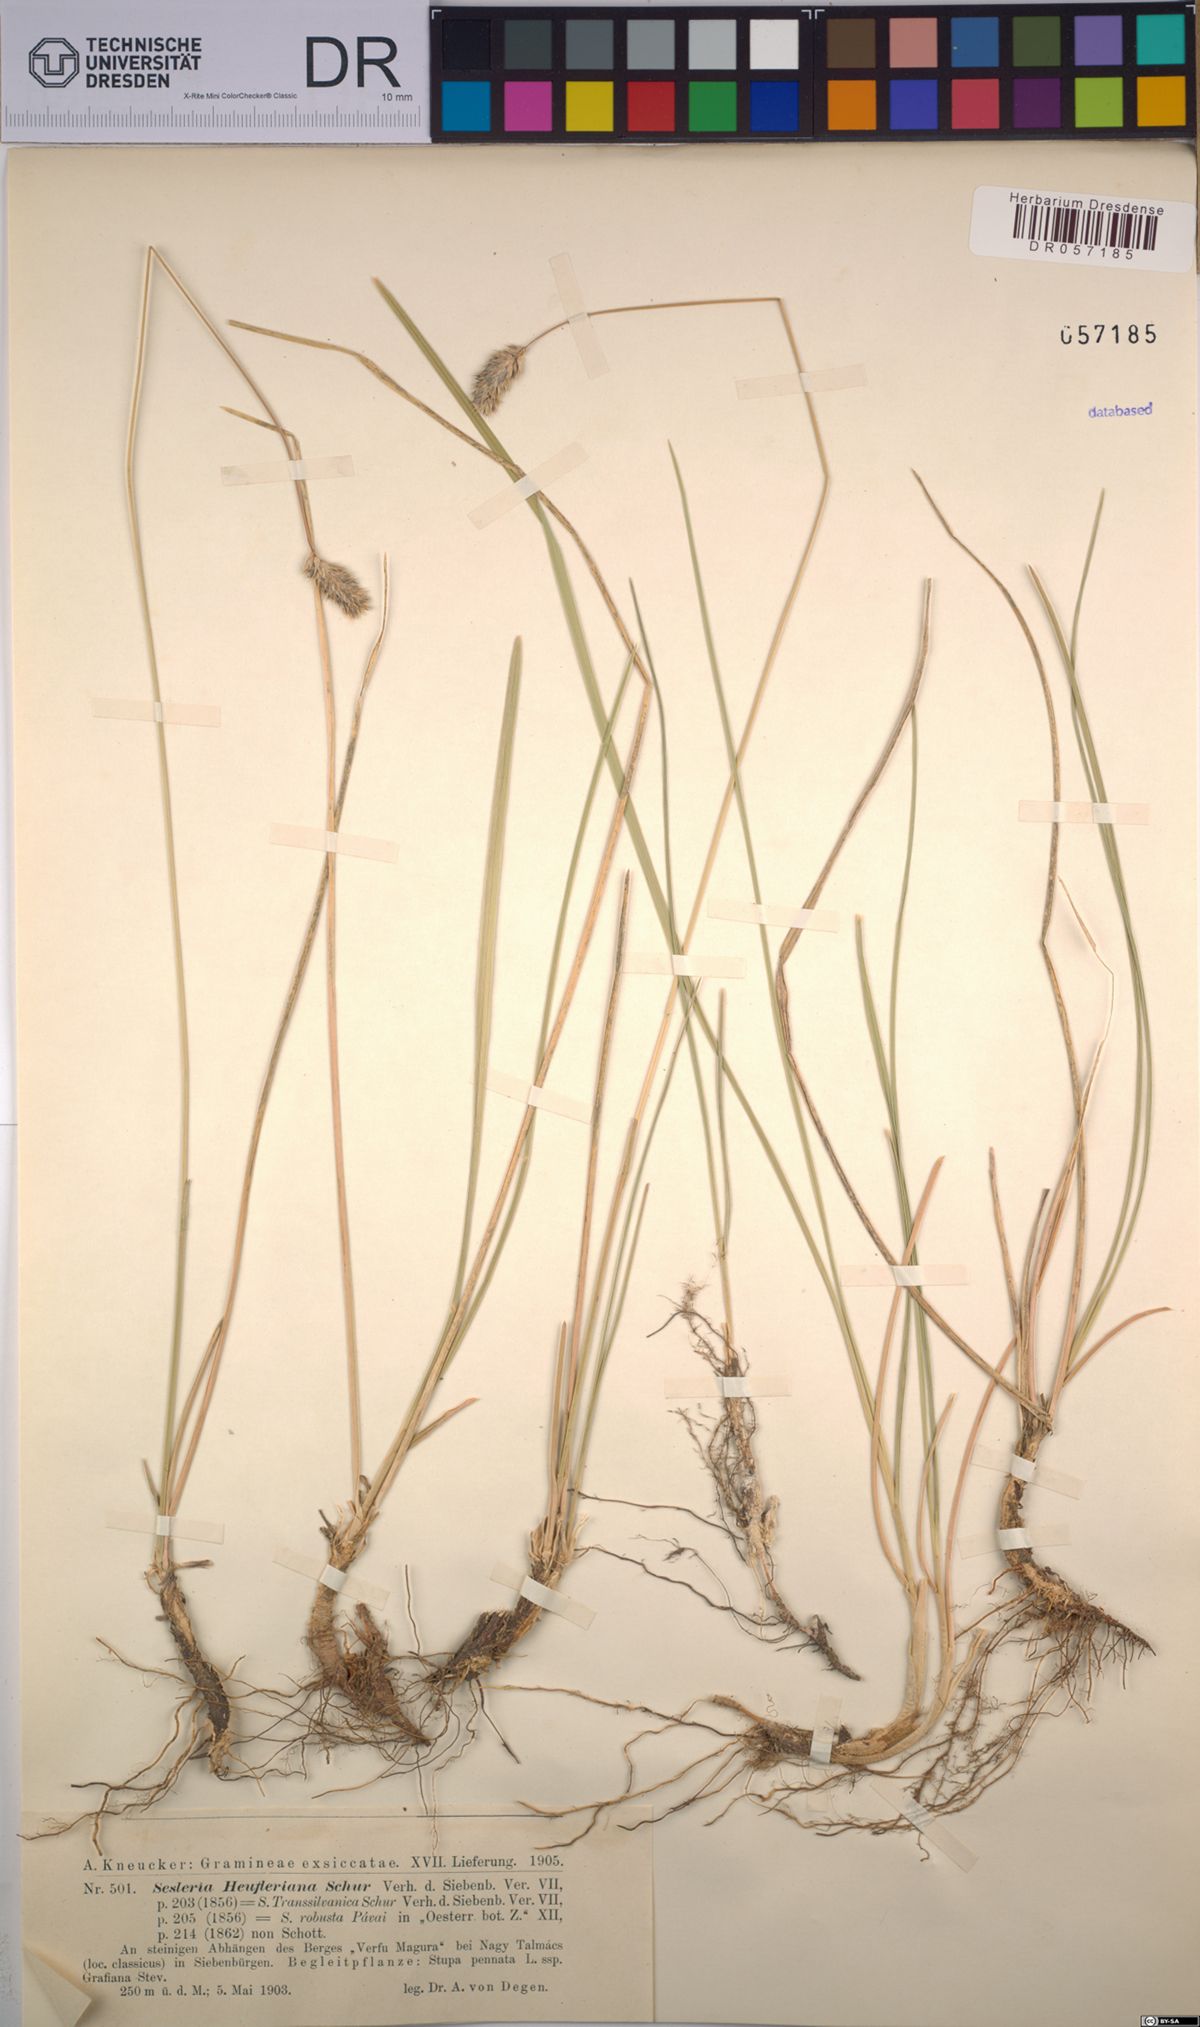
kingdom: Plantae
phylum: Tracheophyta
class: Liliopsida
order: Poales
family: Poaceae
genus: Sesleria
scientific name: Sesleria heufleriana
